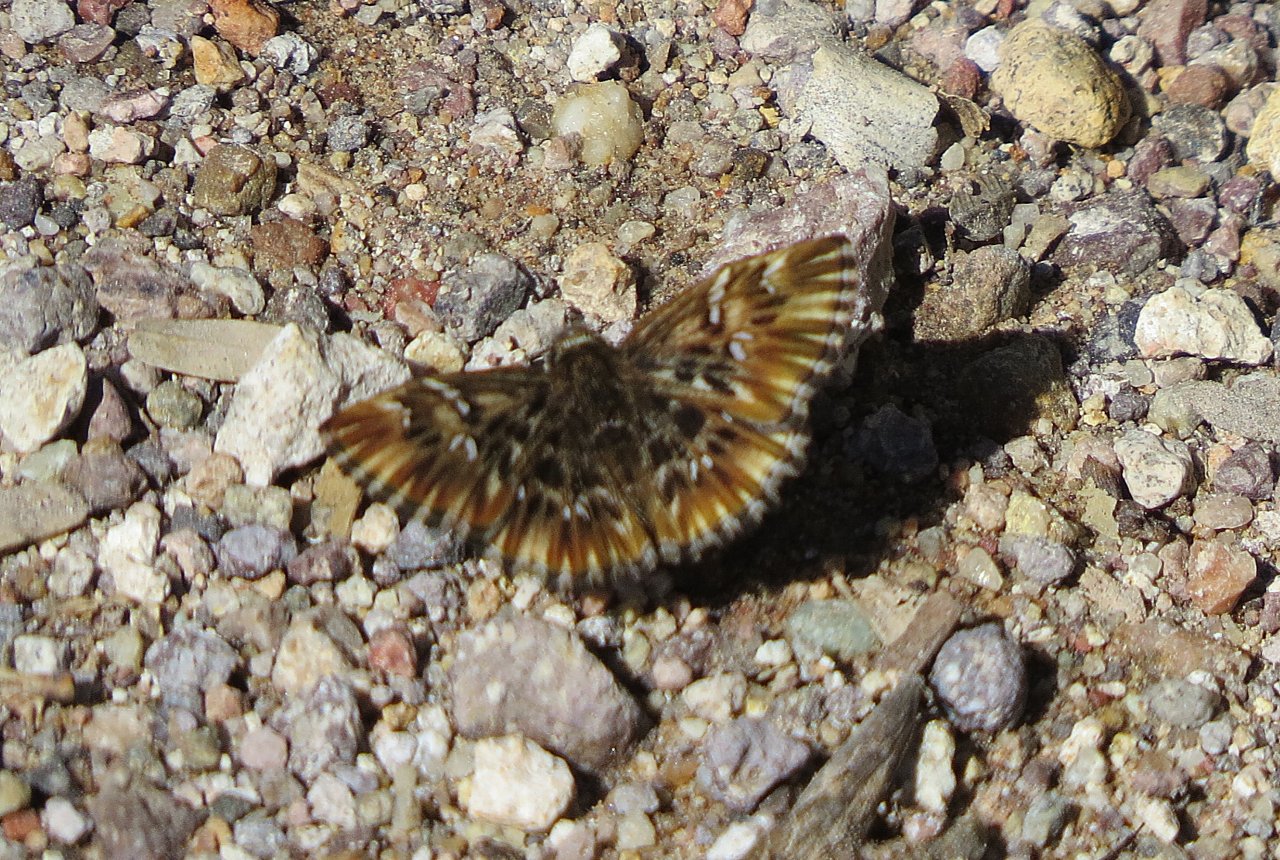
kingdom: Animalia
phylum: Arthropoda
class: Insecta
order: Lepidoptera
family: Hesperiidae
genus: Celotes
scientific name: Celotes nessus
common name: Common Streaky-Skipper
